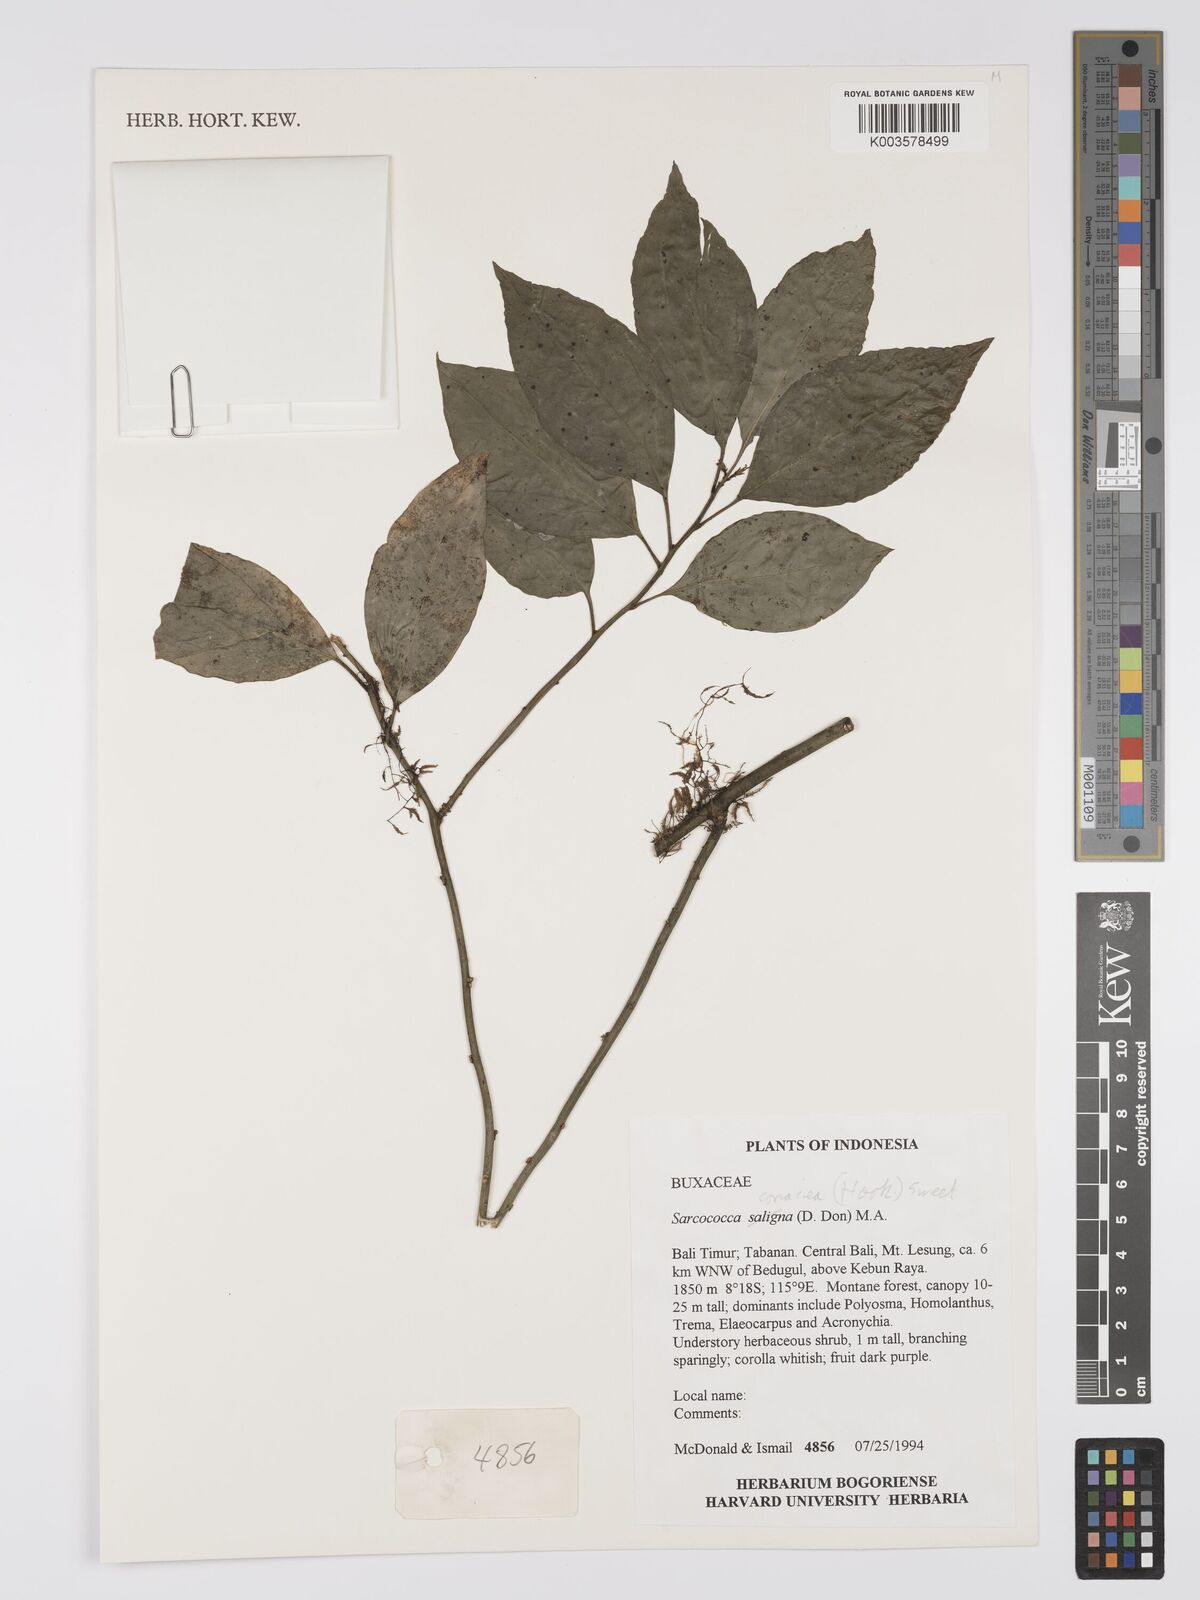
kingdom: Plantae
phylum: Tracheophyta
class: Magnoliopsida
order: Buxales
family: Buxaceae
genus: Sarcococca
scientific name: Sarcococca coriacea
